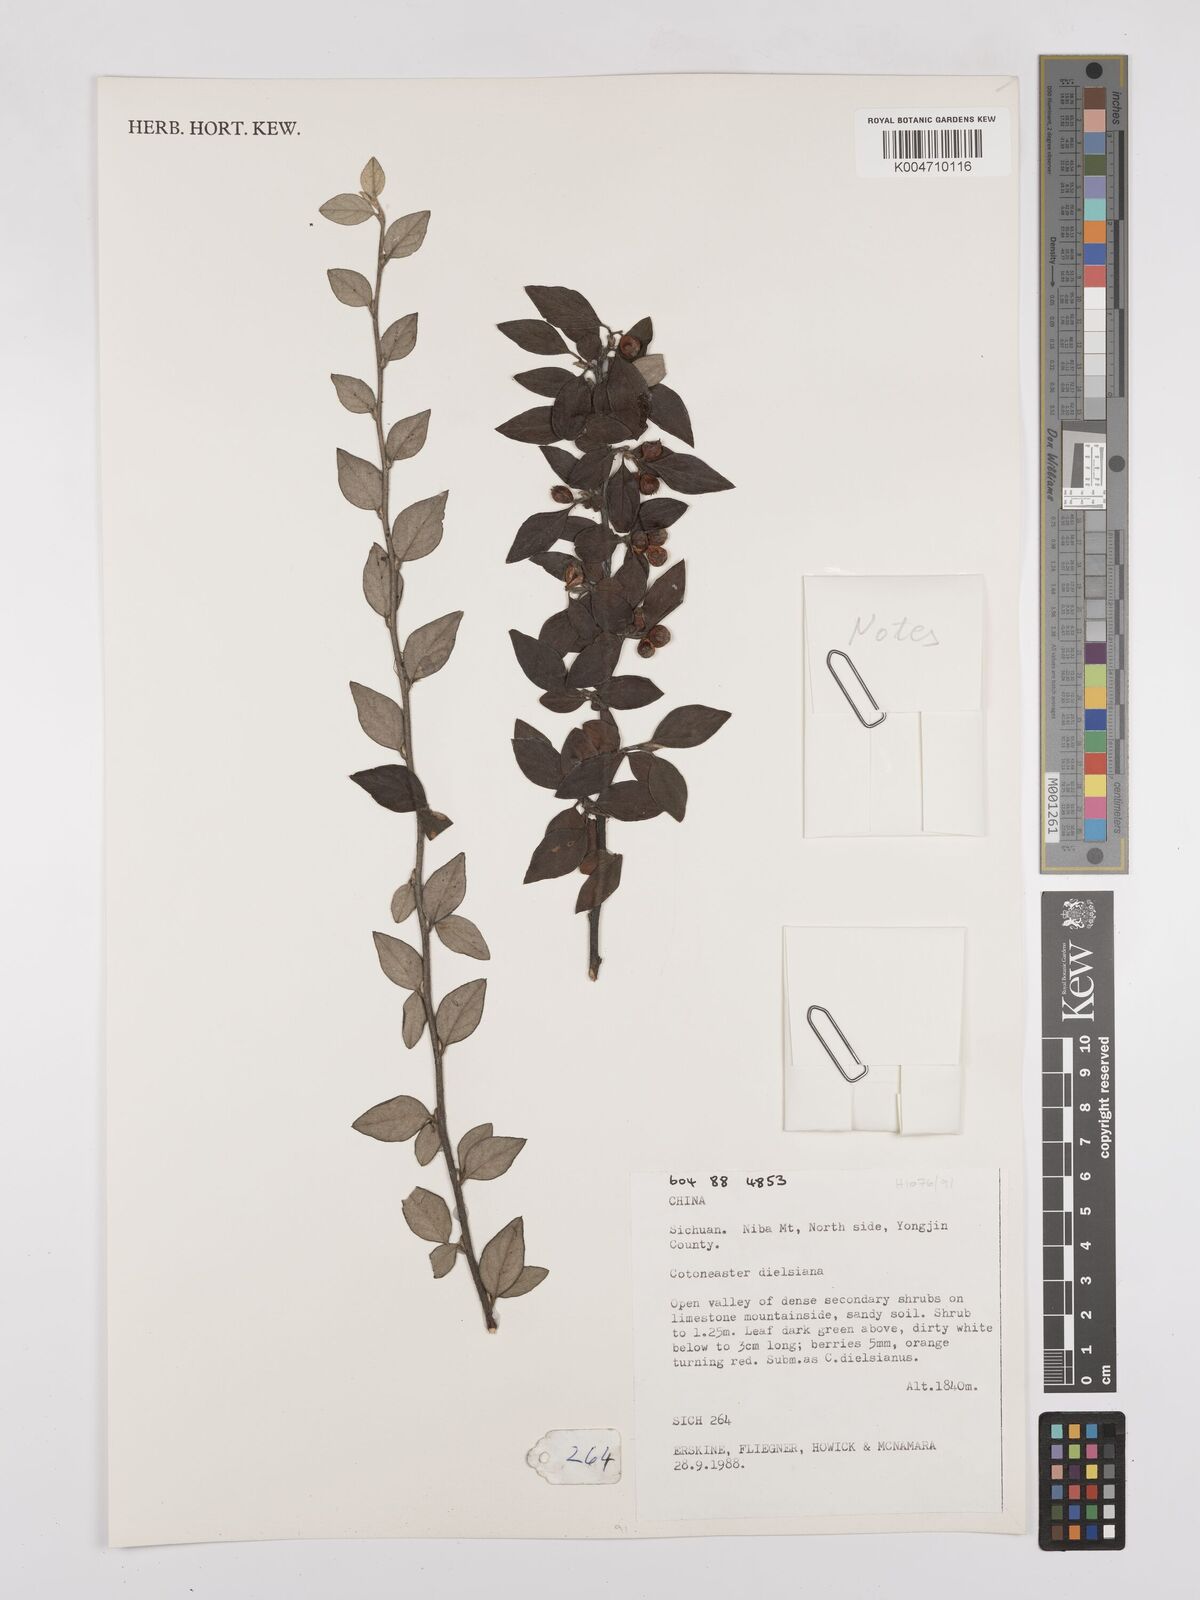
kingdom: Plantae
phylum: Tracheophyta
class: Magnoliopsida
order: Rosales
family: Rosaceae
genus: Cotoneaster
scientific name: Cotoneaster dielsianus
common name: Diels's cotoneaster
